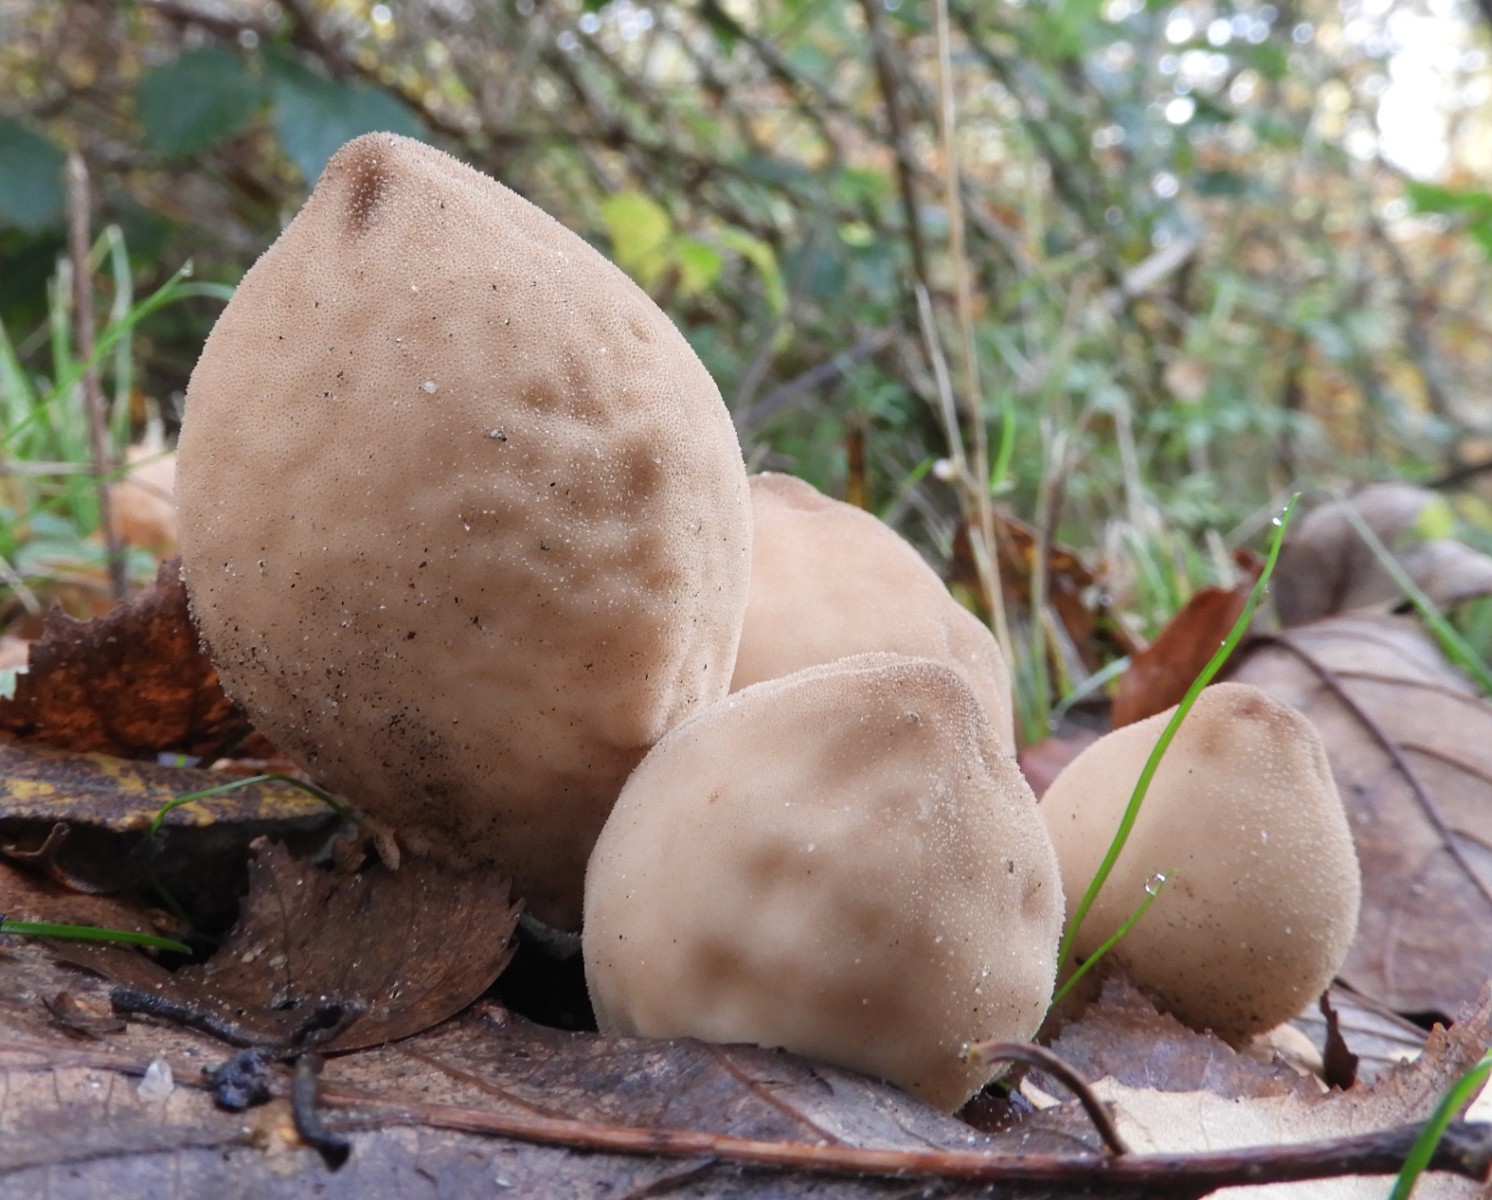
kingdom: Fungi
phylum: Basidiomycota
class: Agaricomycetes
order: Agaricales
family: Lycoperdaceae
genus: Apioperdon
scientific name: Apioperdon pyriforme
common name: pære-støvbold
